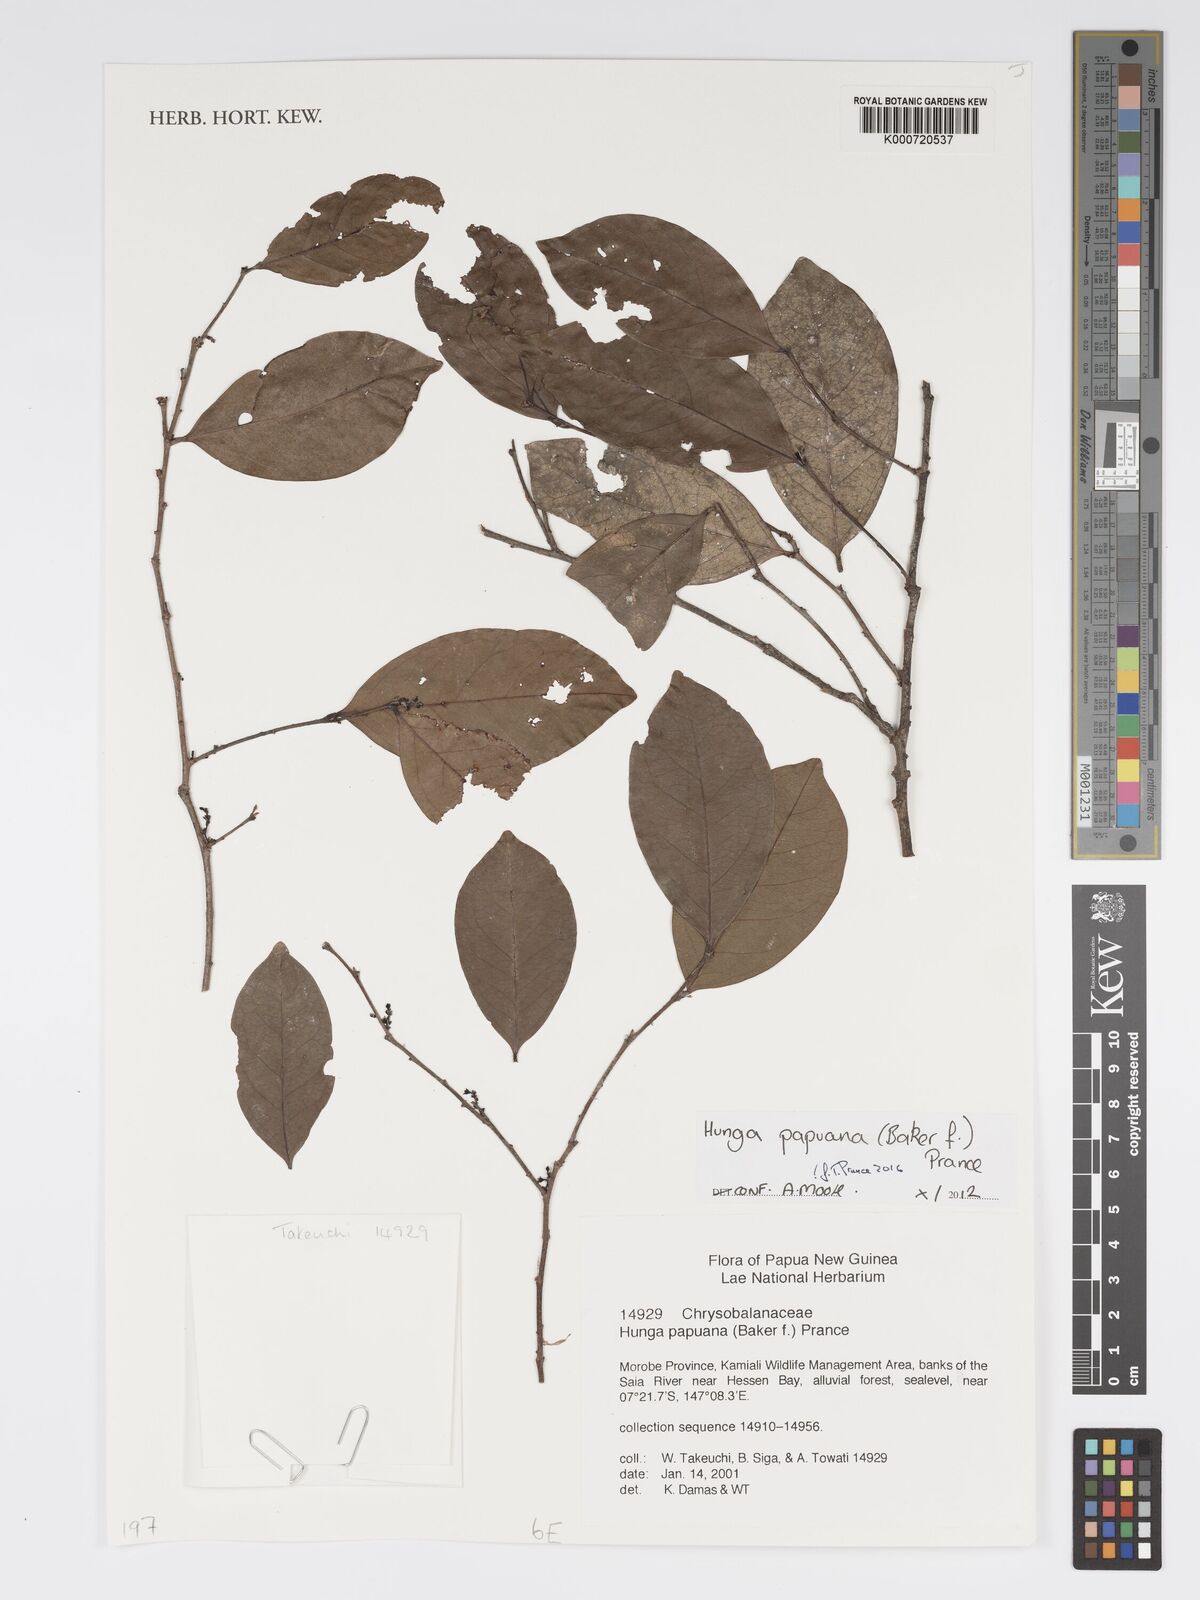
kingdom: Plantae
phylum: Tracheophyta
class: Magnoliopsida
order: Malpighiales
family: Chrysobalanaceae
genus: Hunga
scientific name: Hunga papuana
